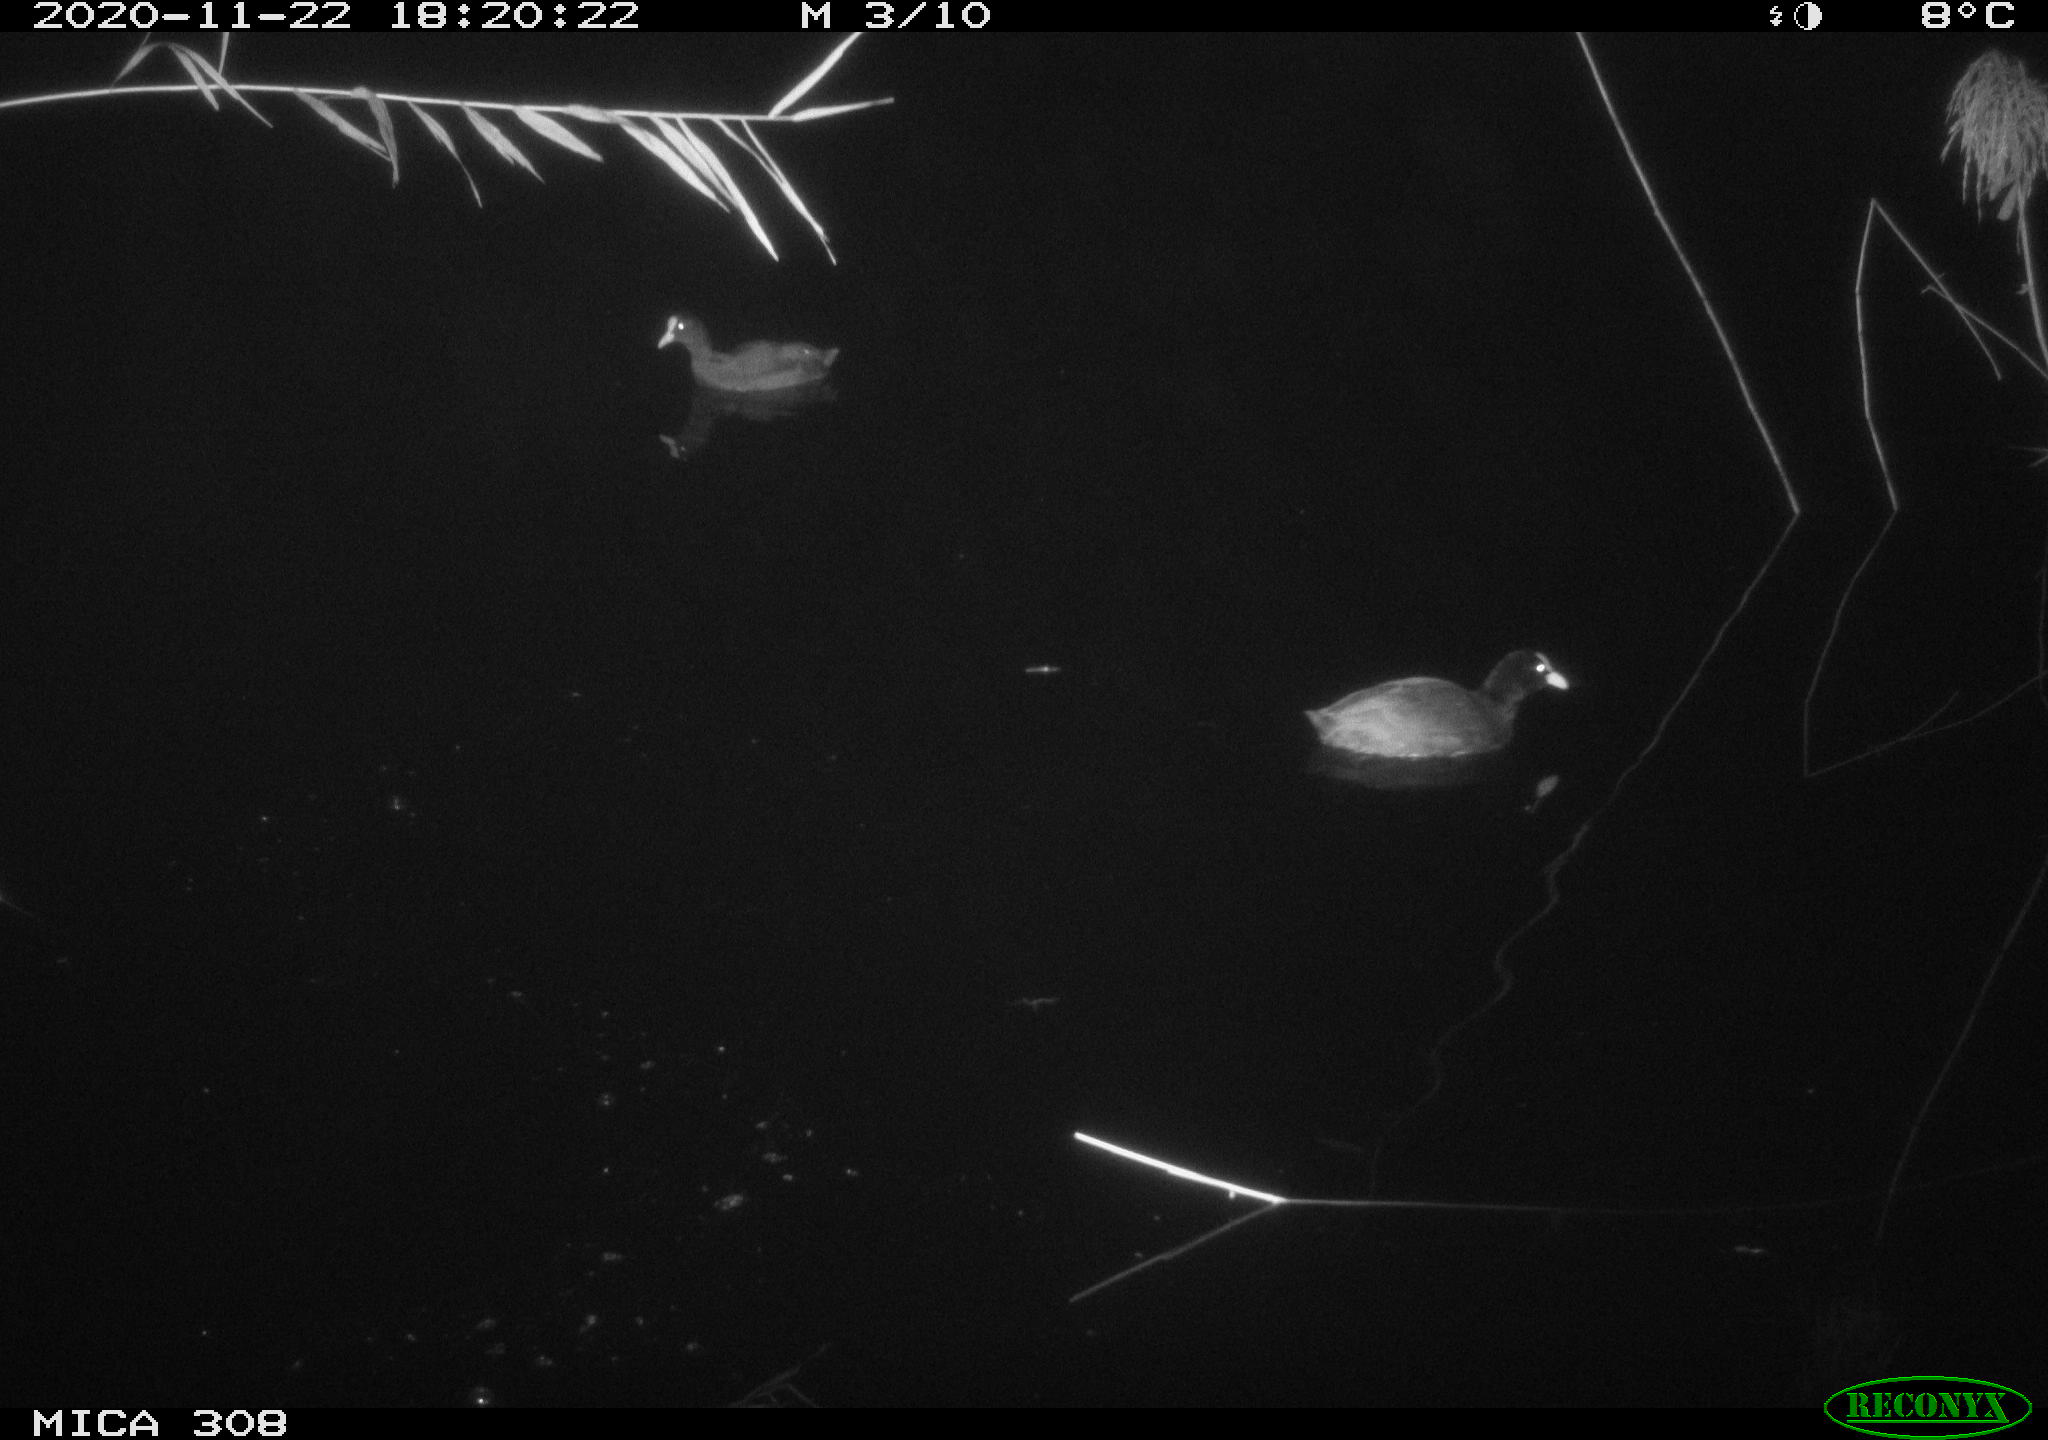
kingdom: Animalia
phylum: Chordata
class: Aves
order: Gruiformes
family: Rallidae
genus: Fulica
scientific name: Fulica atra
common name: Eurasian coot
